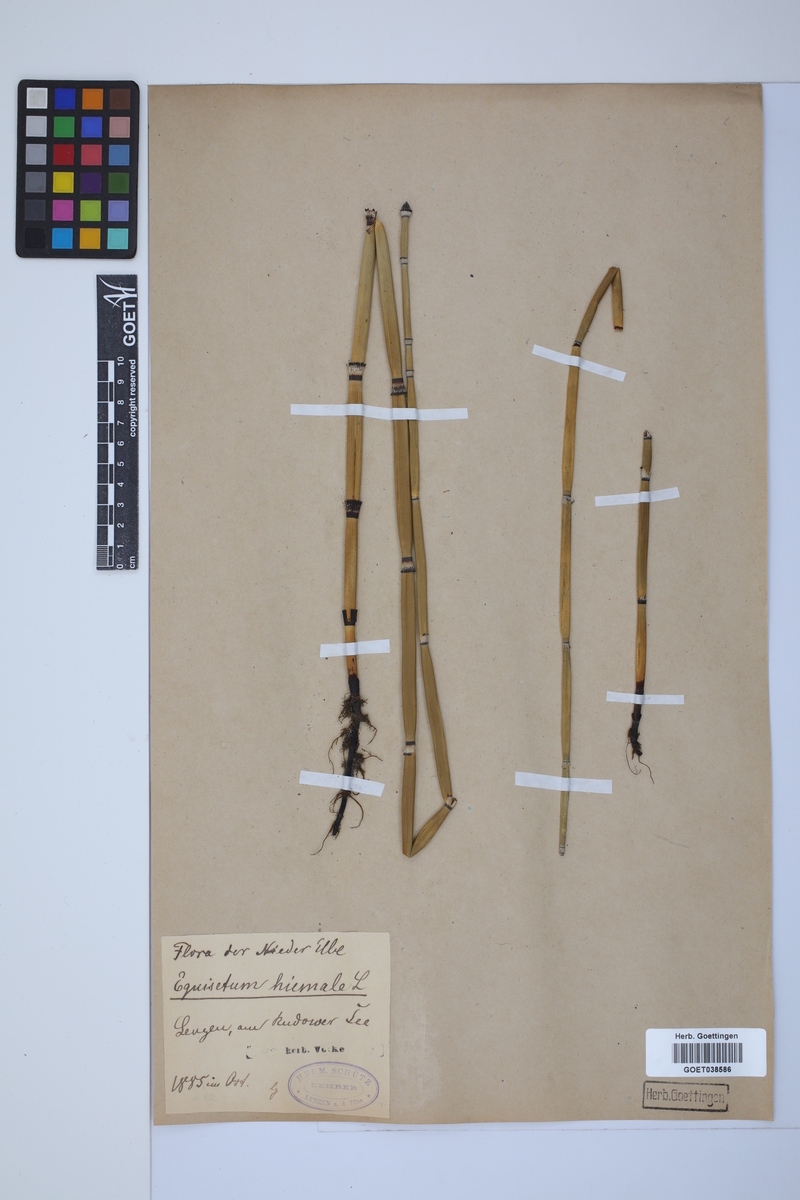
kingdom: Plantae
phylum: Tracheophyta
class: Polypodiopsida
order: Equisetales
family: Equisetaceae
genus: Equisetum
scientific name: Equisetum hyemale
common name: Rough horsetail
